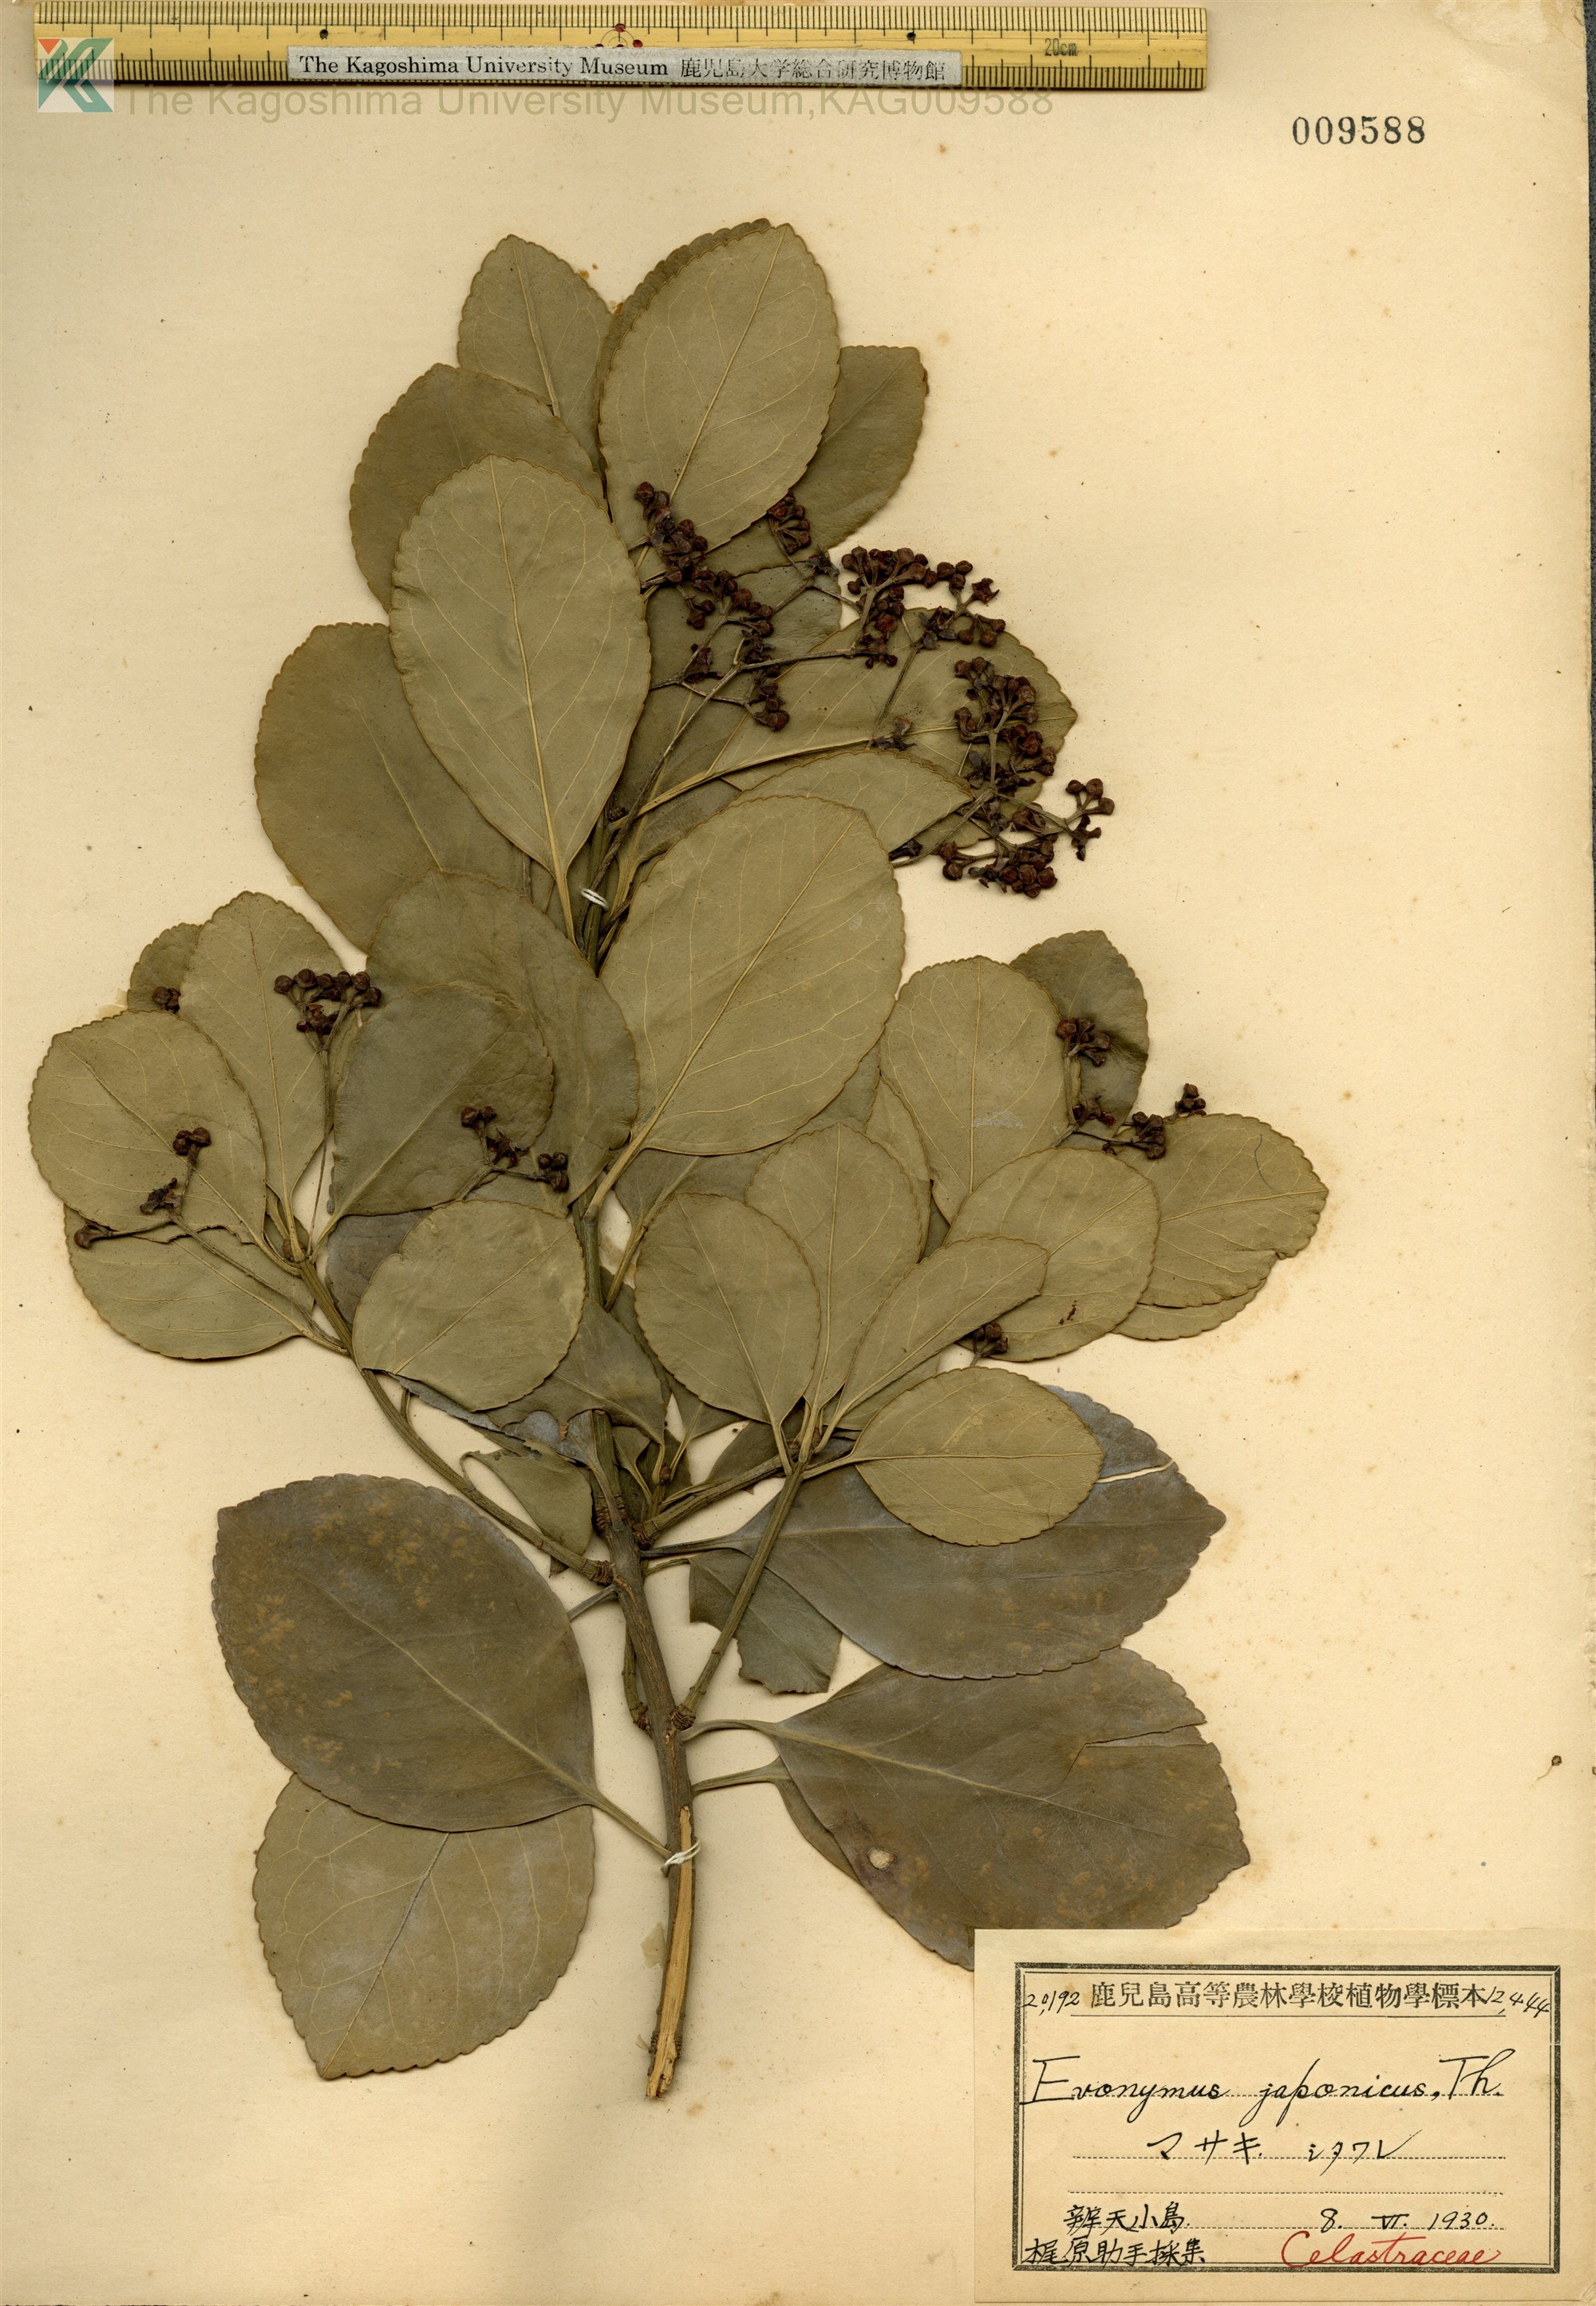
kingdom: Plantae
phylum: Tracheophyta
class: Magnoliopsida
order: Celastrales
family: Celastraceae
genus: Euonymus
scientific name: Euonymus japonicus
